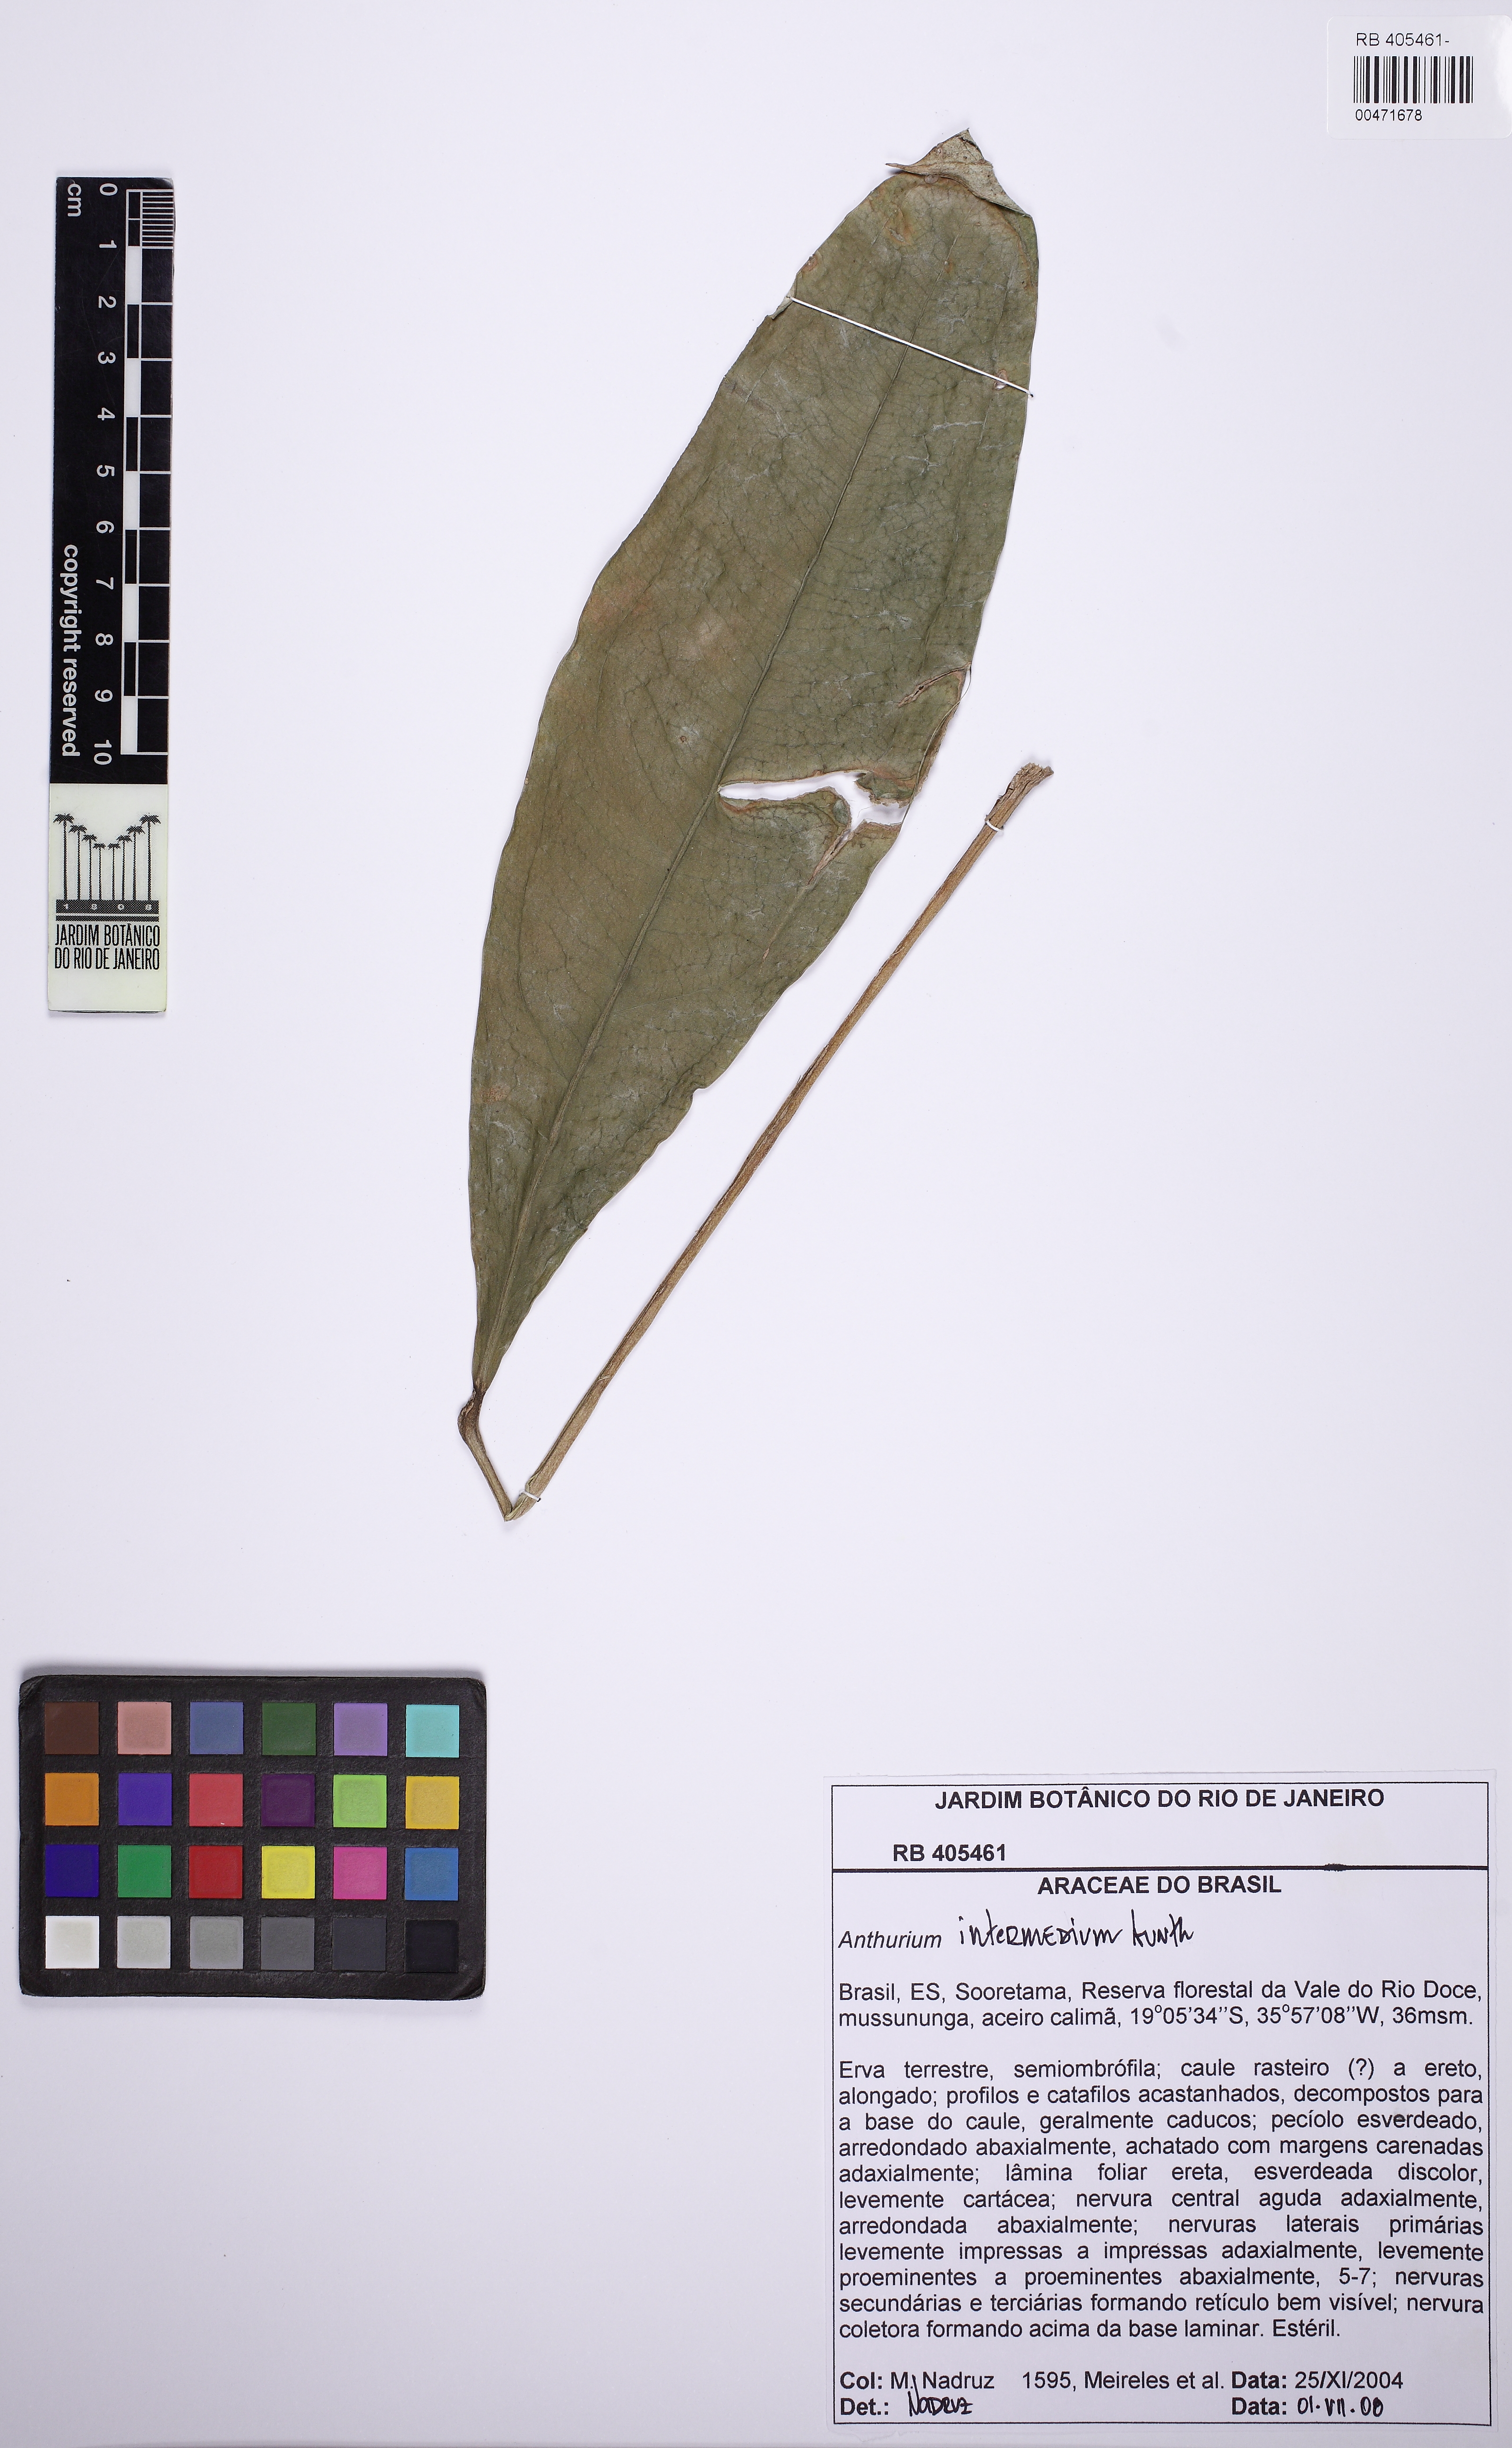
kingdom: Plantae
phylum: Tracheophyta
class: Liliopsida
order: Alismatales
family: Araceae
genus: Anthurium
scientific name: Anthurium
